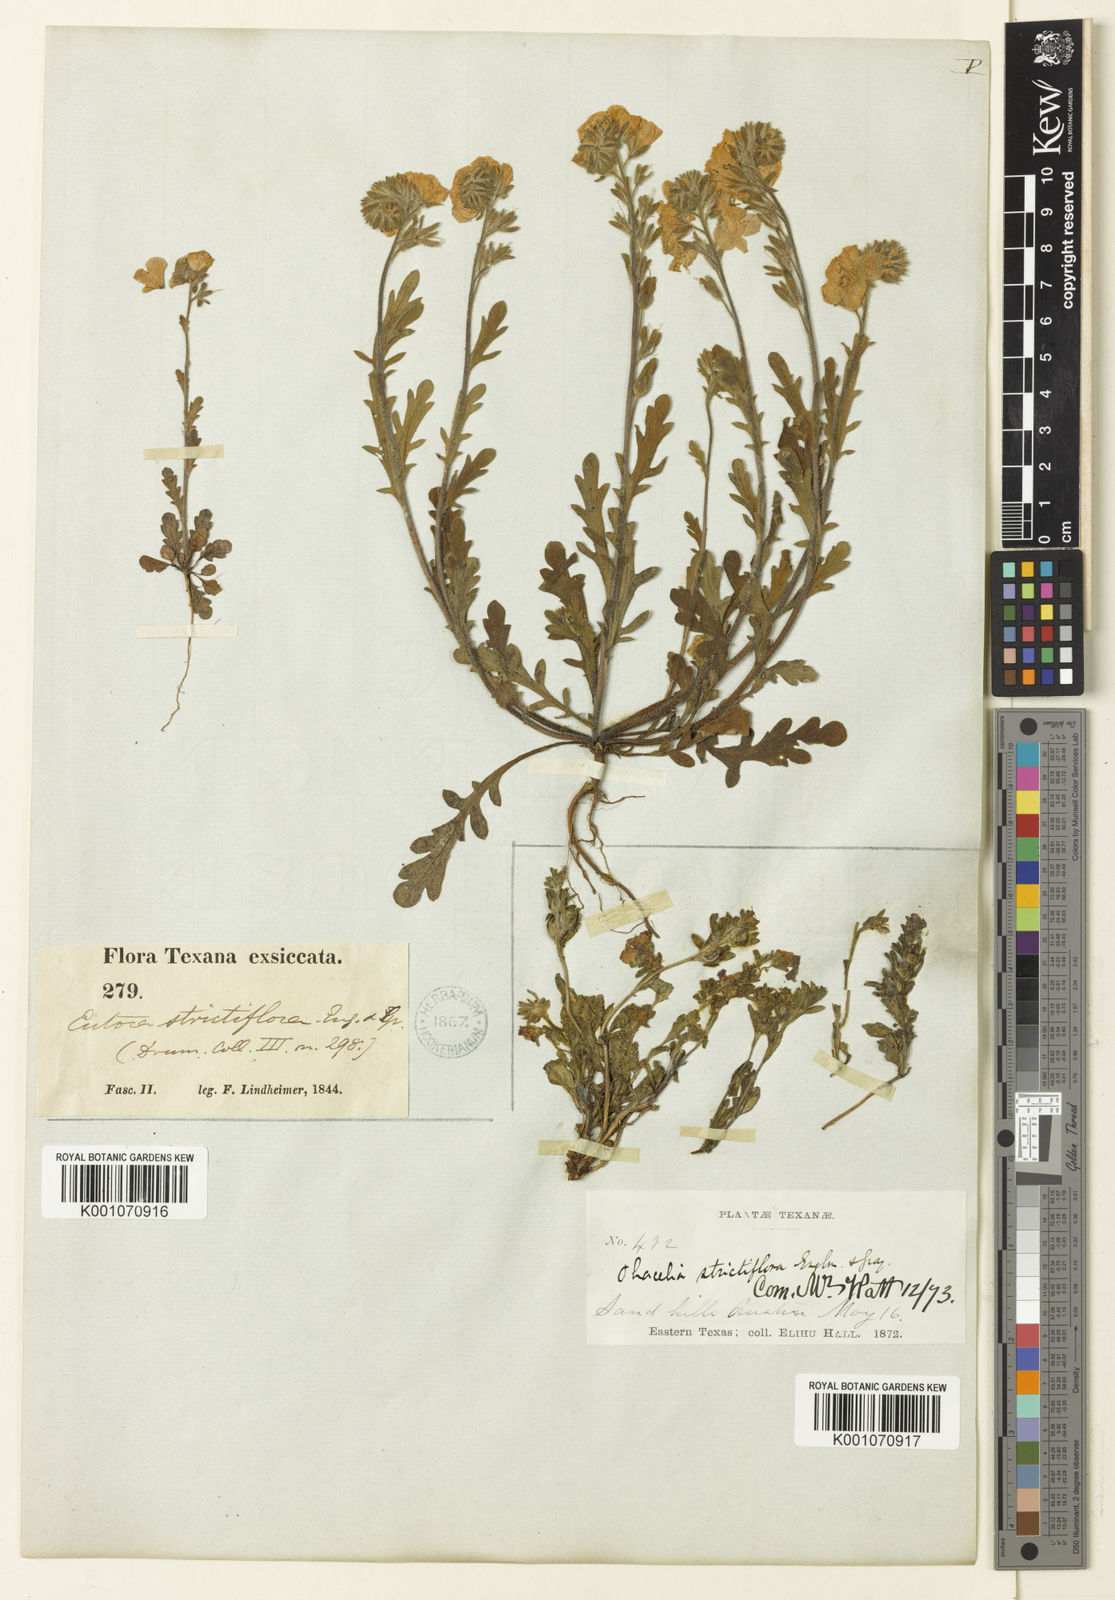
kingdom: Plantae
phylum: Tracheophyta
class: Magnoliopsida
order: Boraginales
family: Hydrophyllaceae
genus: Phacelia
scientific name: Phacelia strictiflora
